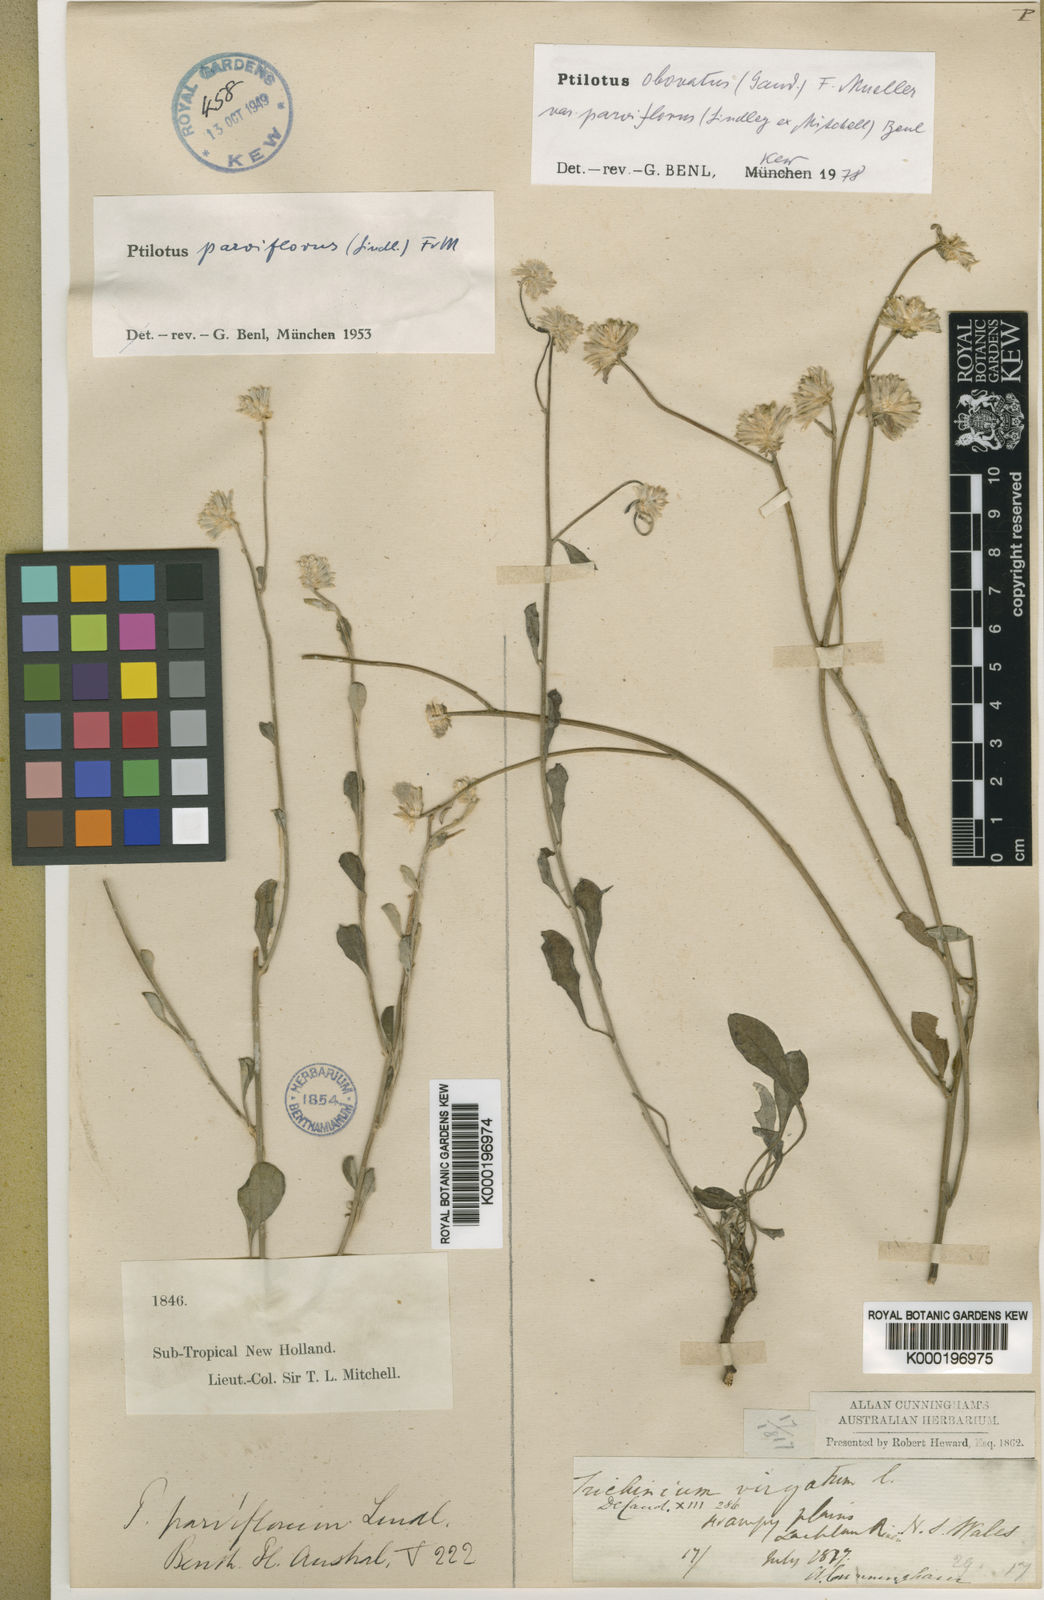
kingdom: Plantae
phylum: Tracheophyta
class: Magnoliopsida
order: Caryophyllales
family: Amaranthaceae
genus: Ptilotus
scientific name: Ptilotus parviflorus
